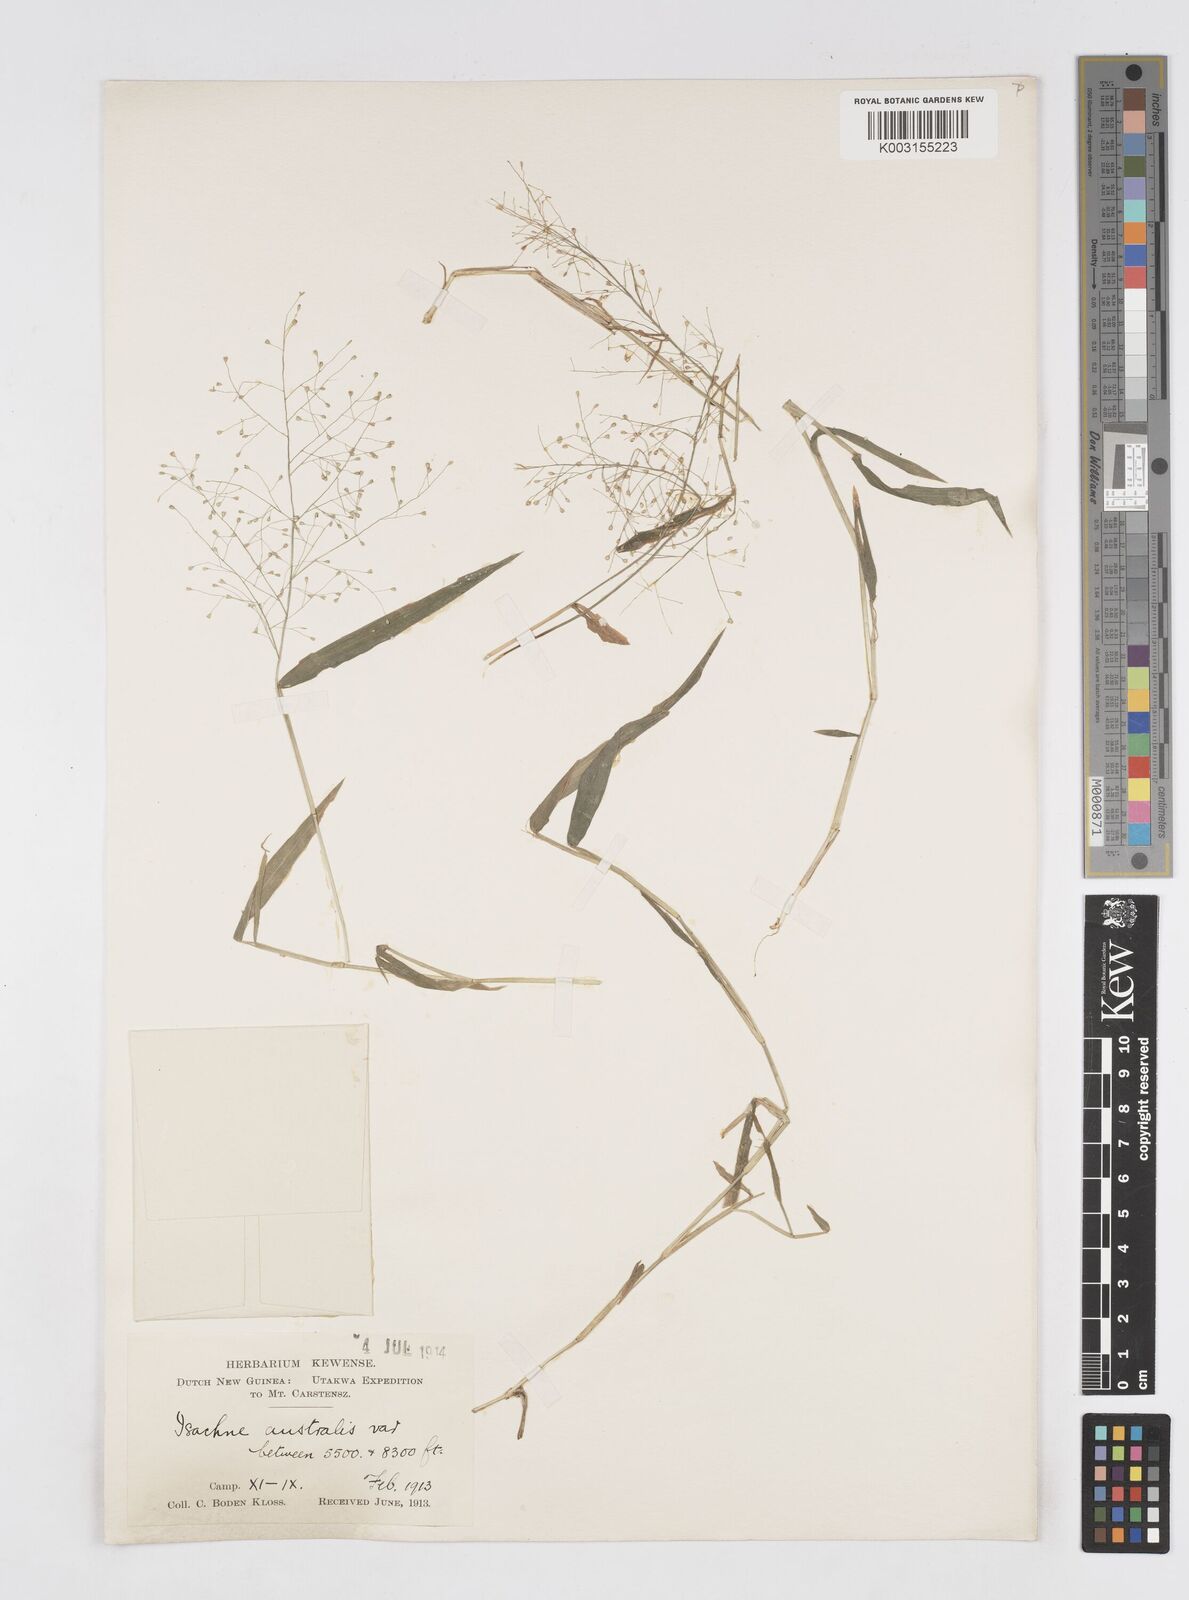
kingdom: Plantae
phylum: Tracheophyta
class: Liliopsida
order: Poales
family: Poaceae
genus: Isachne
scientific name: Isachne globosa
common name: Swamp millet
